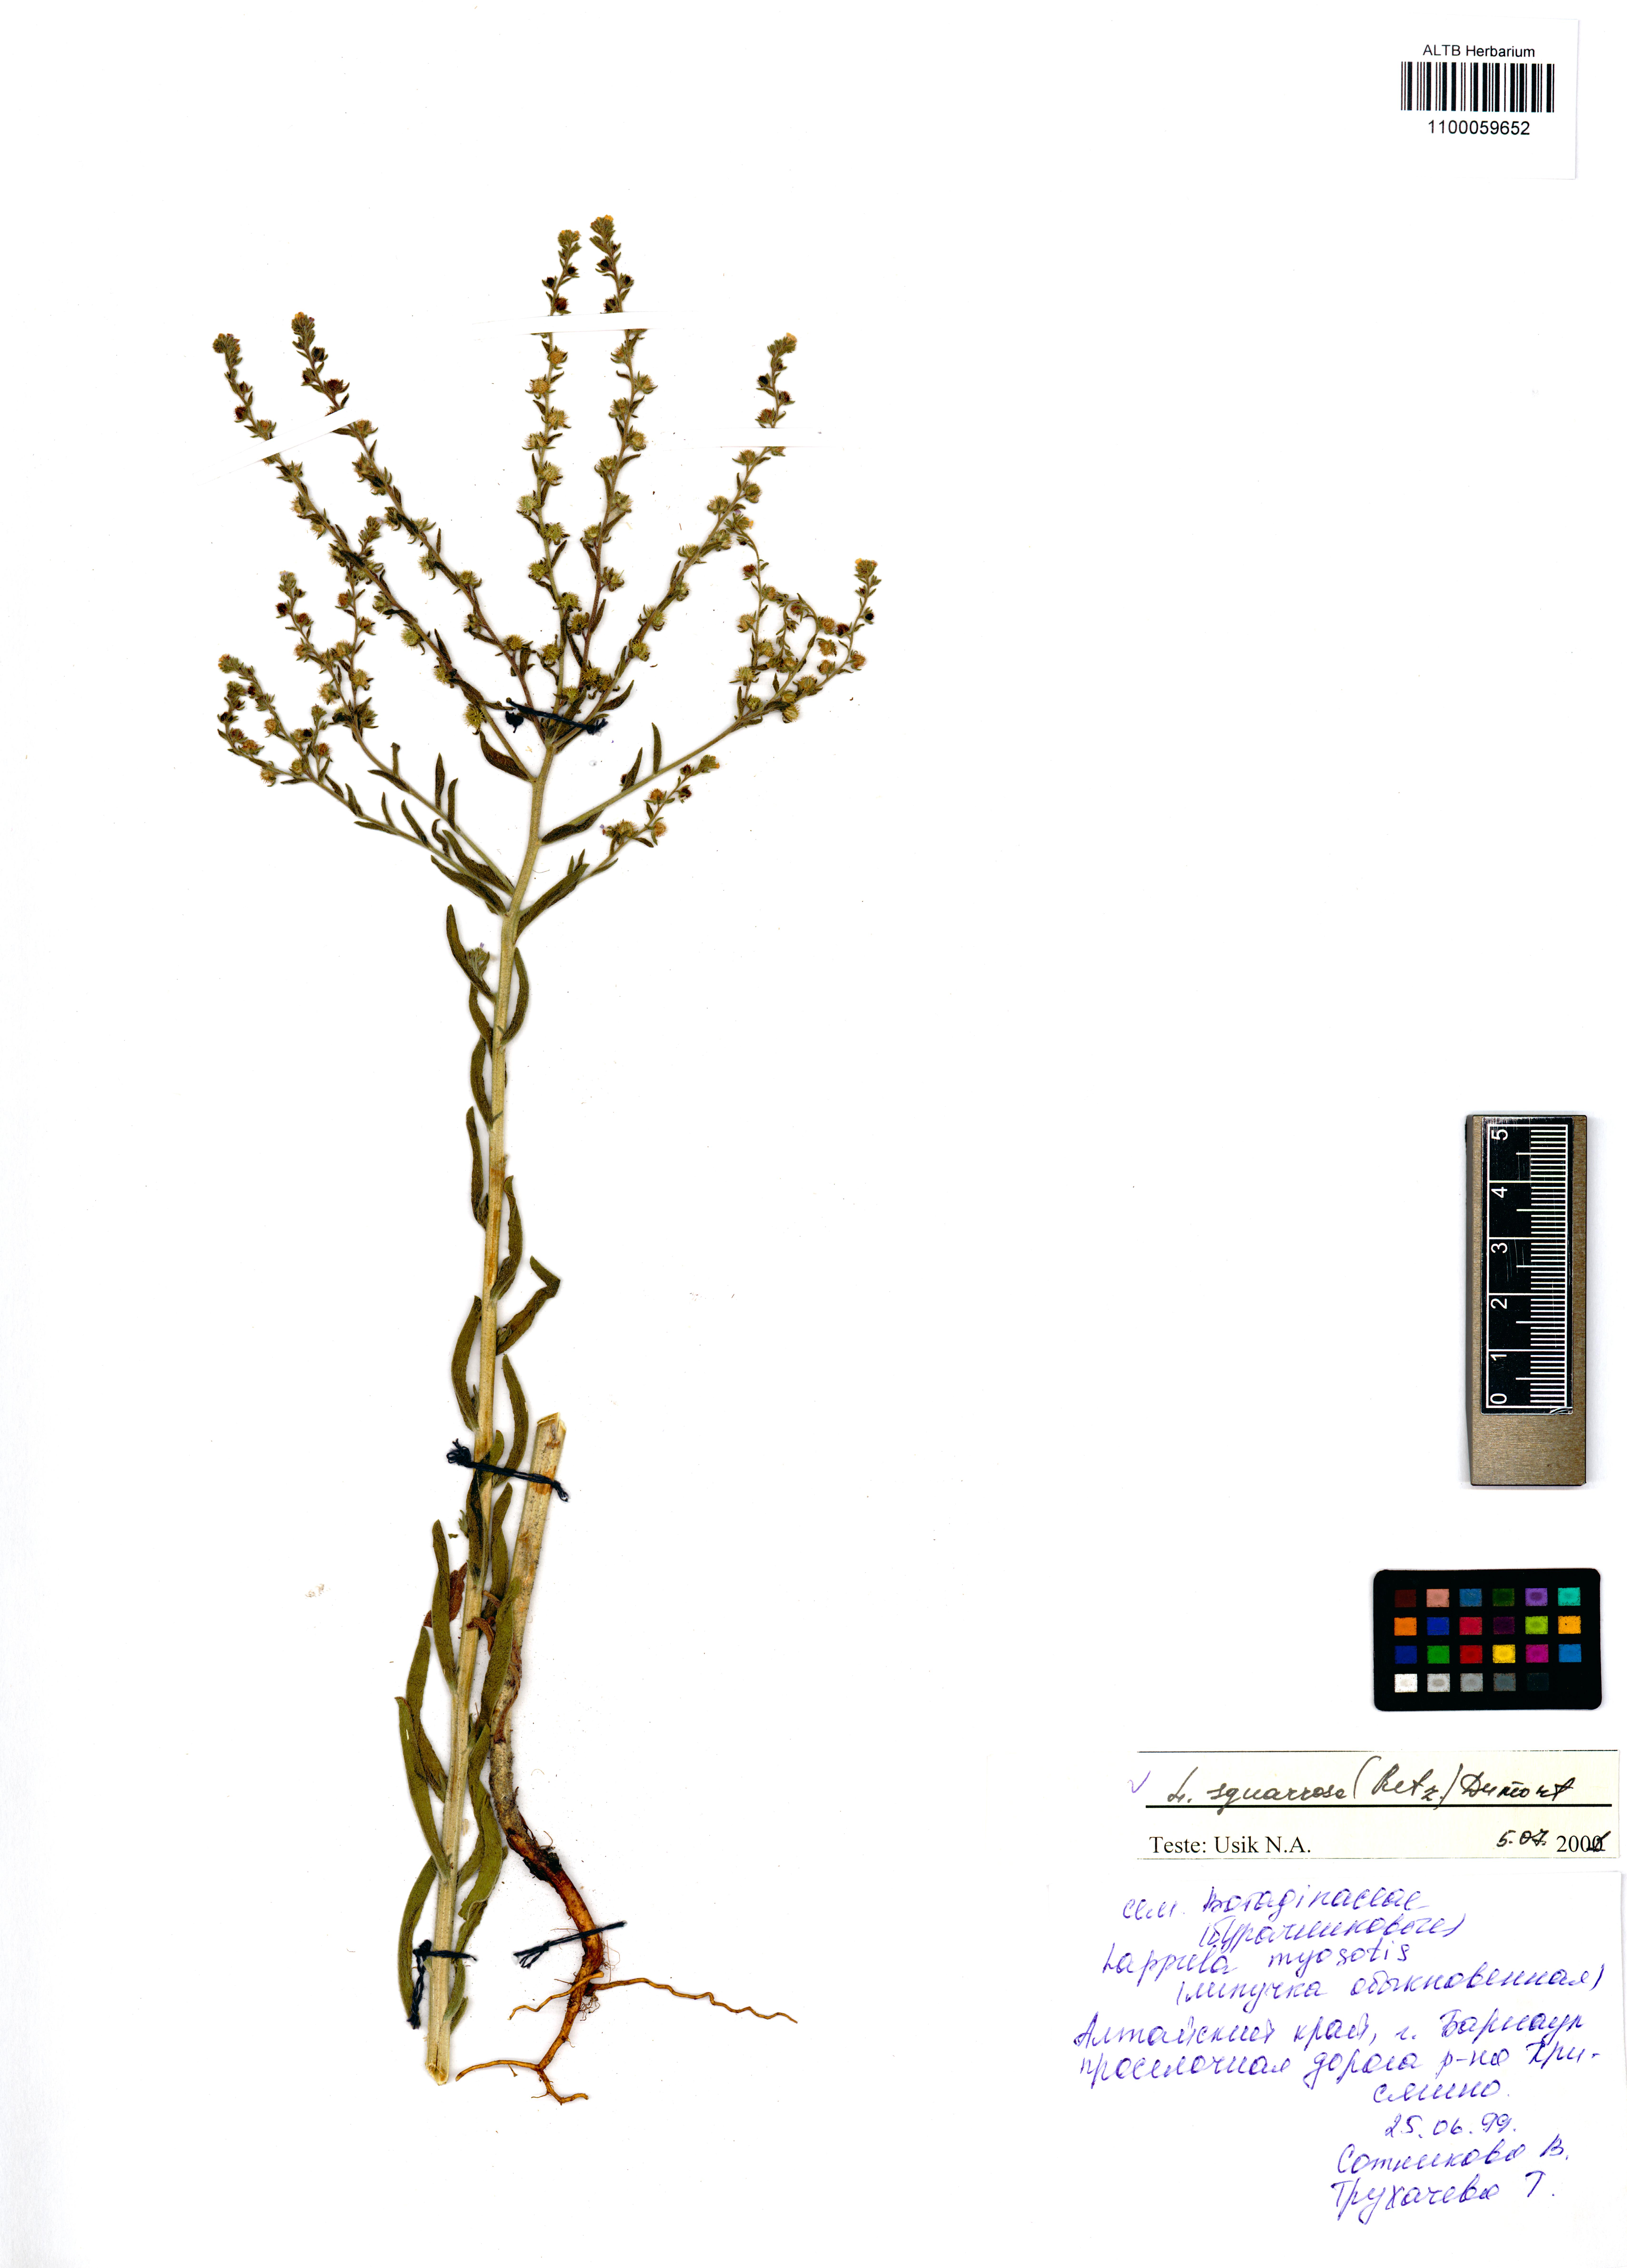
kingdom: Plantae
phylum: Tracheophyta
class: Magnoliopsida
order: Boraginales
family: Boraginaceae
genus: Lappula
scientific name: Lappula squarrosa
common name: European stickseed
